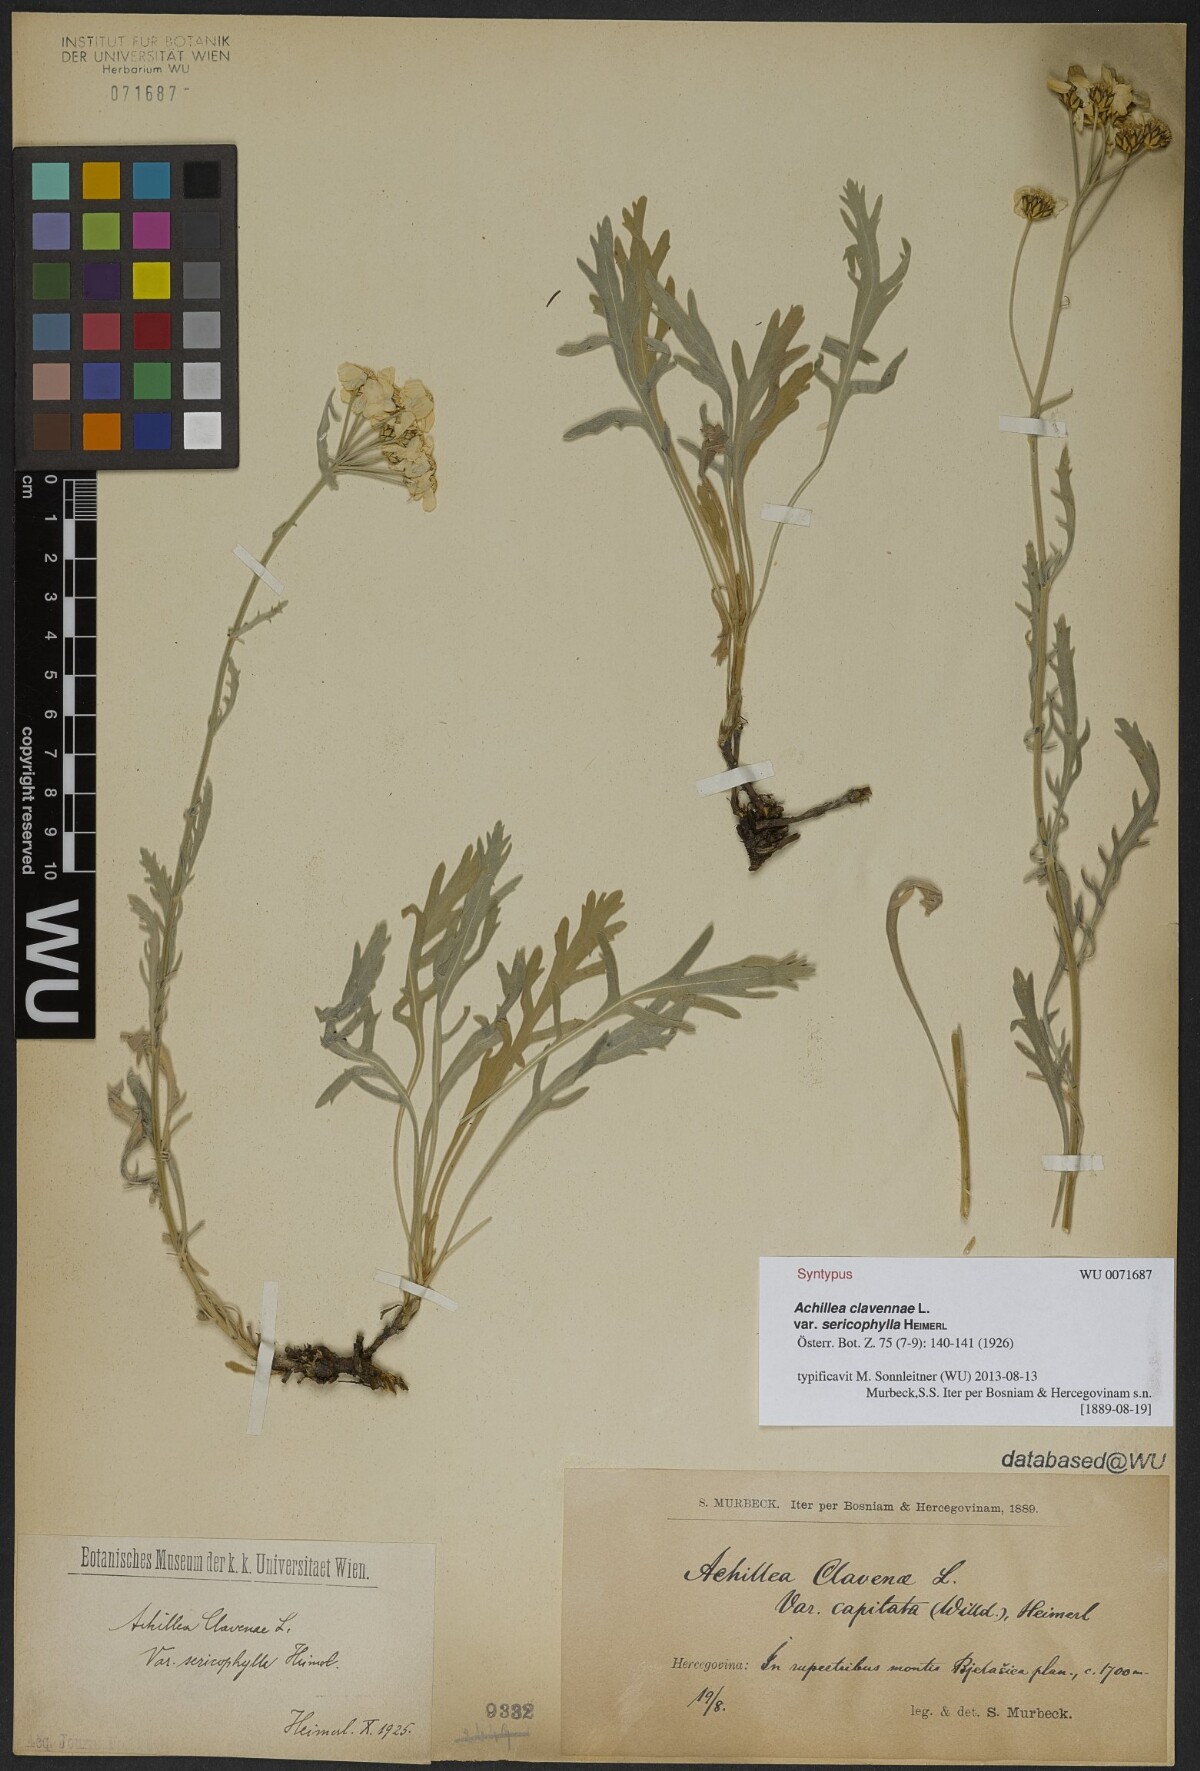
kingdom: Plantae
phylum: Tracheophyta
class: Magnoliopsida
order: Asterales
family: Asteraceae
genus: Achillea
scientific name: Achillea clavennae
